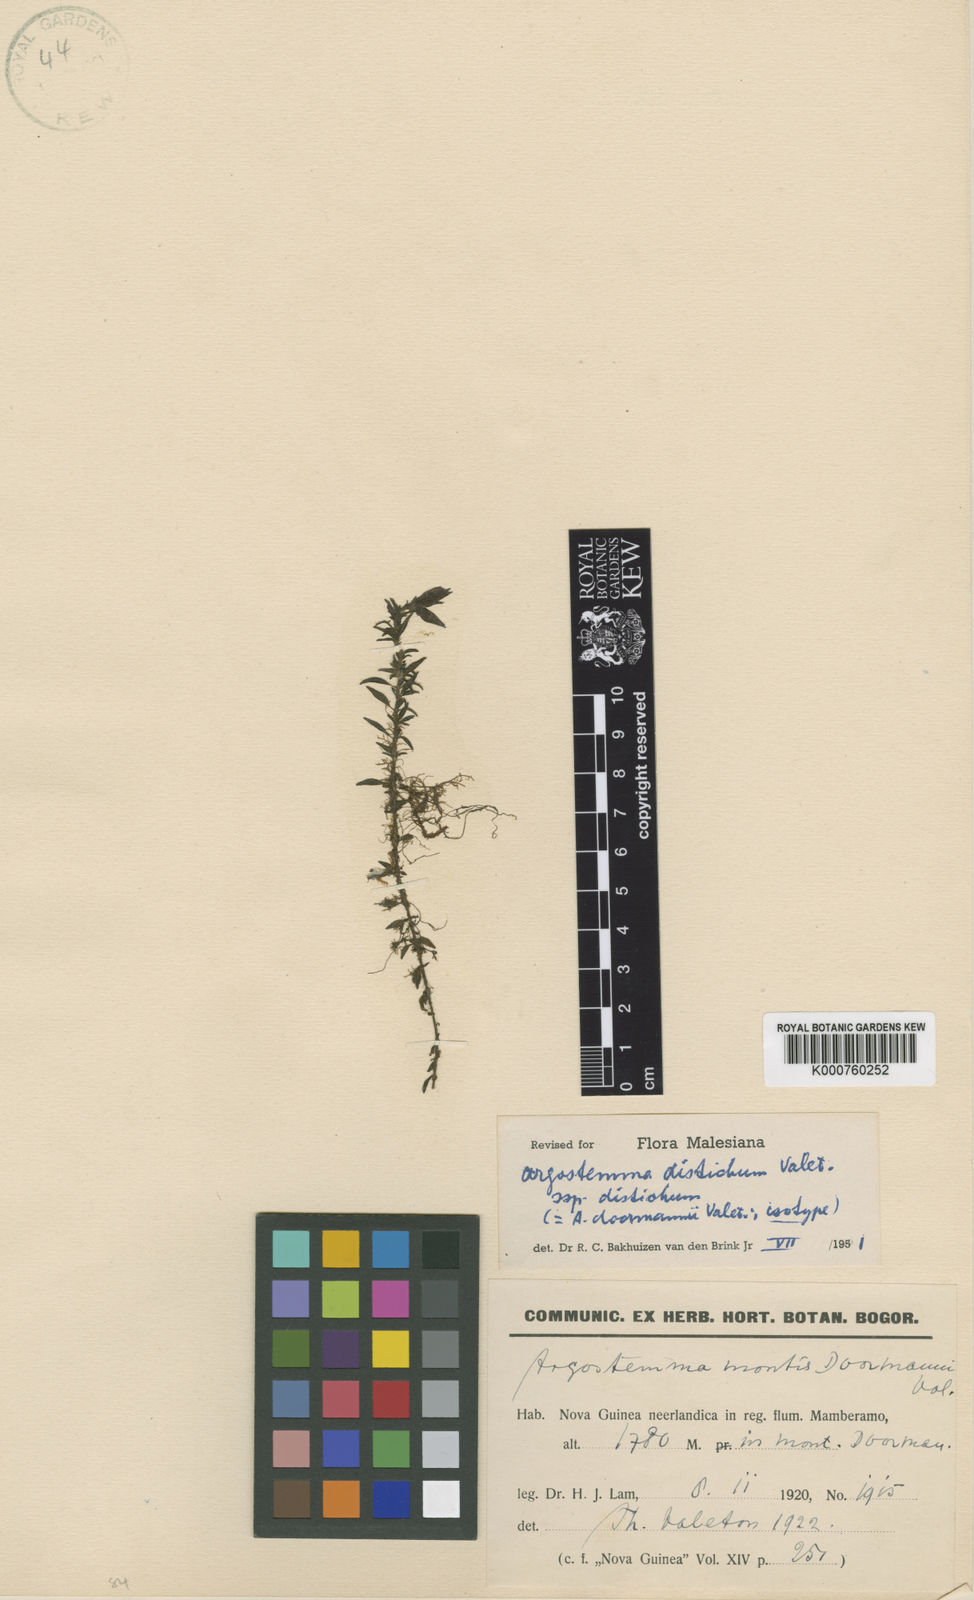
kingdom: Plantae
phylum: Tracheophyta
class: Magnoliopsida
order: Gentianales
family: Rubiaceae
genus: Argostemma
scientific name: Argostemma distichum
